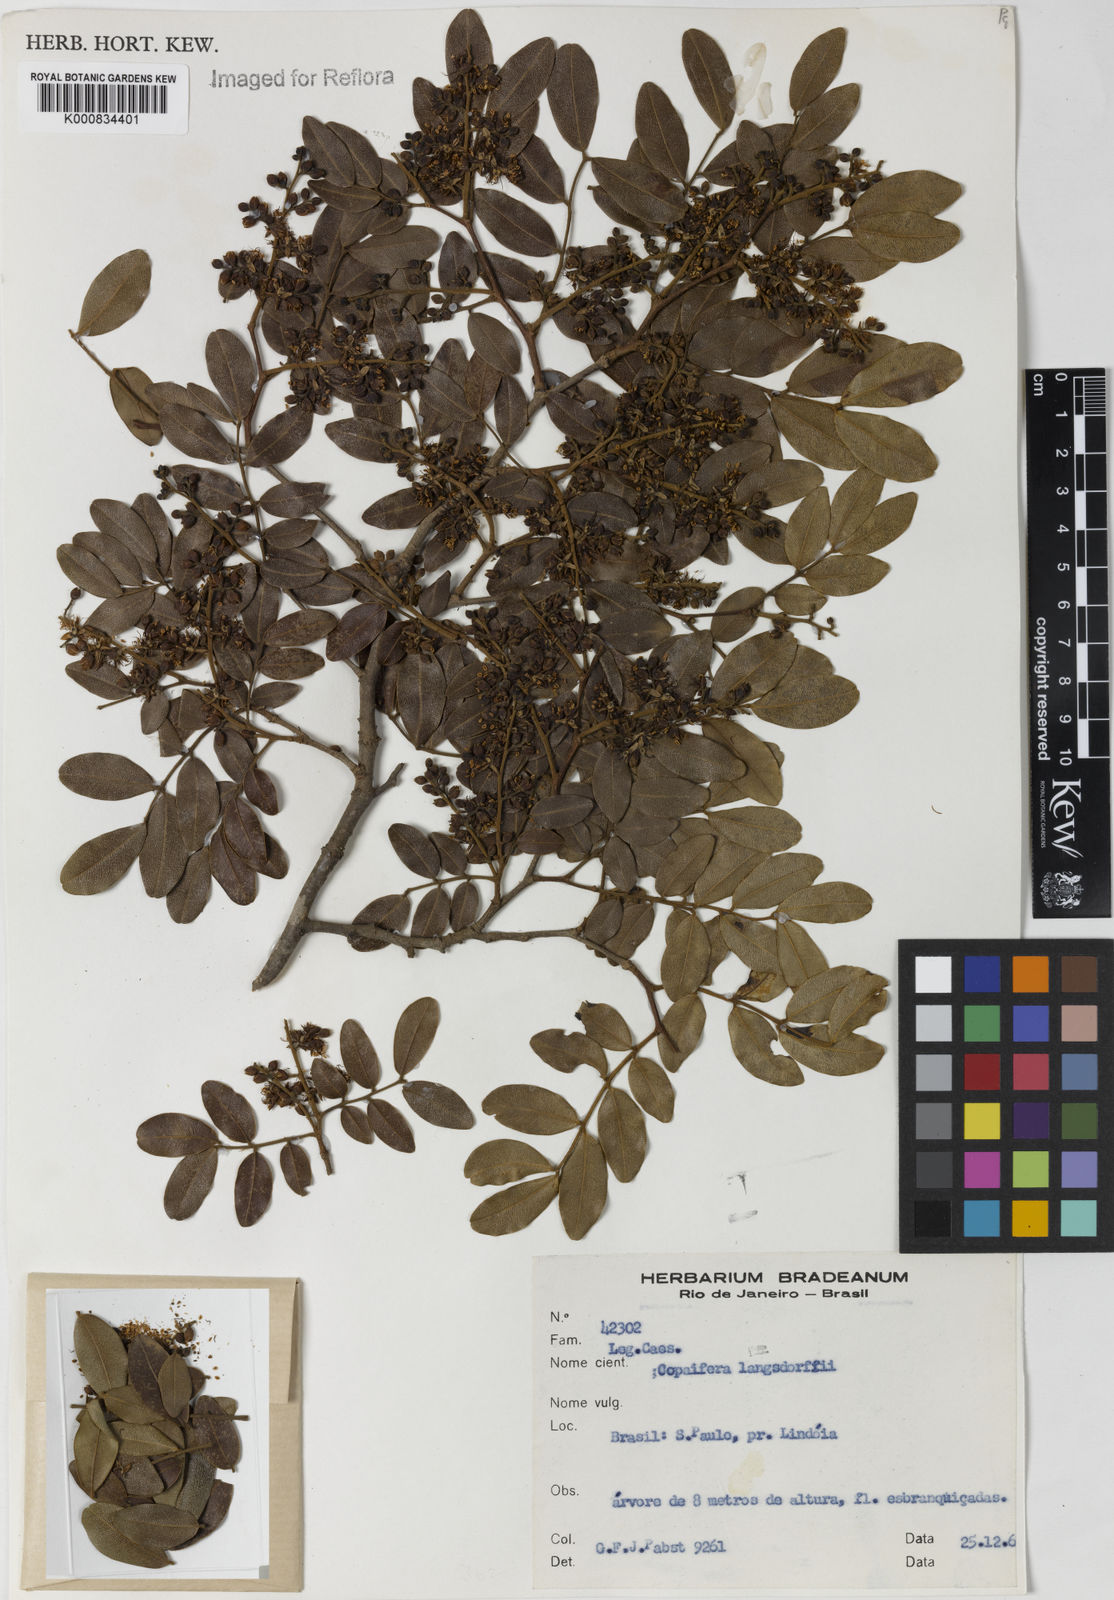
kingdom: Plantae
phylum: Tracheophyta
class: Magnoliopsida
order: Fabales
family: Fabaceae
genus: Copaifera
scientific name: Copaifera langsdorffii
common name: Brazilian diesel tree
